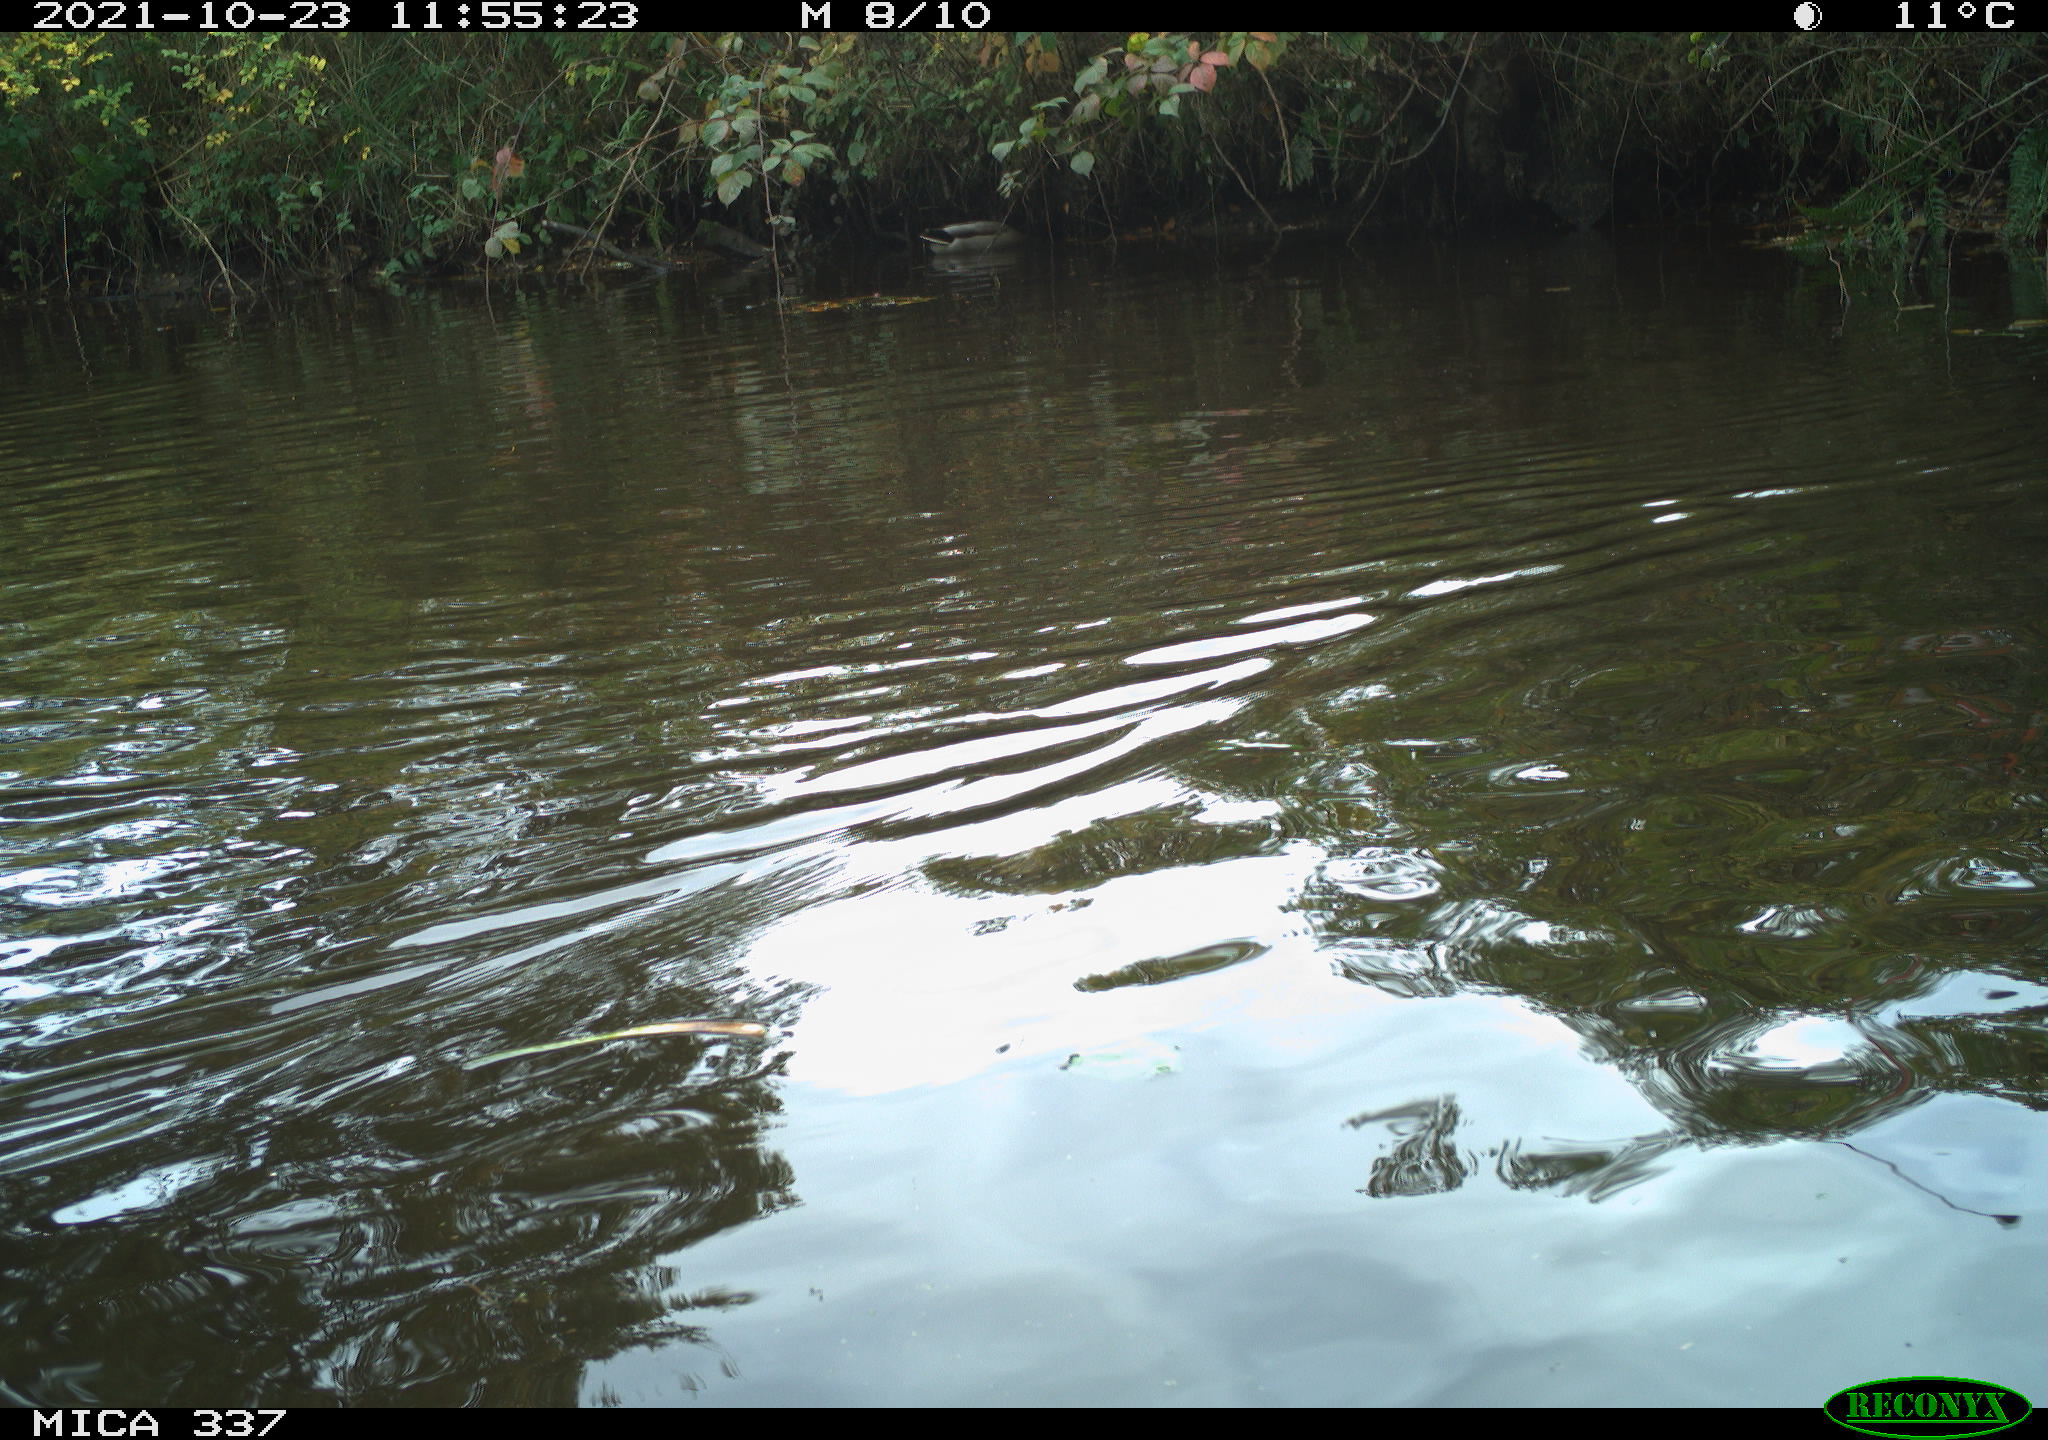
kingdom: Animalia
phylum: Chordata
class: Aves
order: Anseriformes
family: Anatidae
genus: Anas
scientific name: Anas platyrhynchos
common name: Mallard
